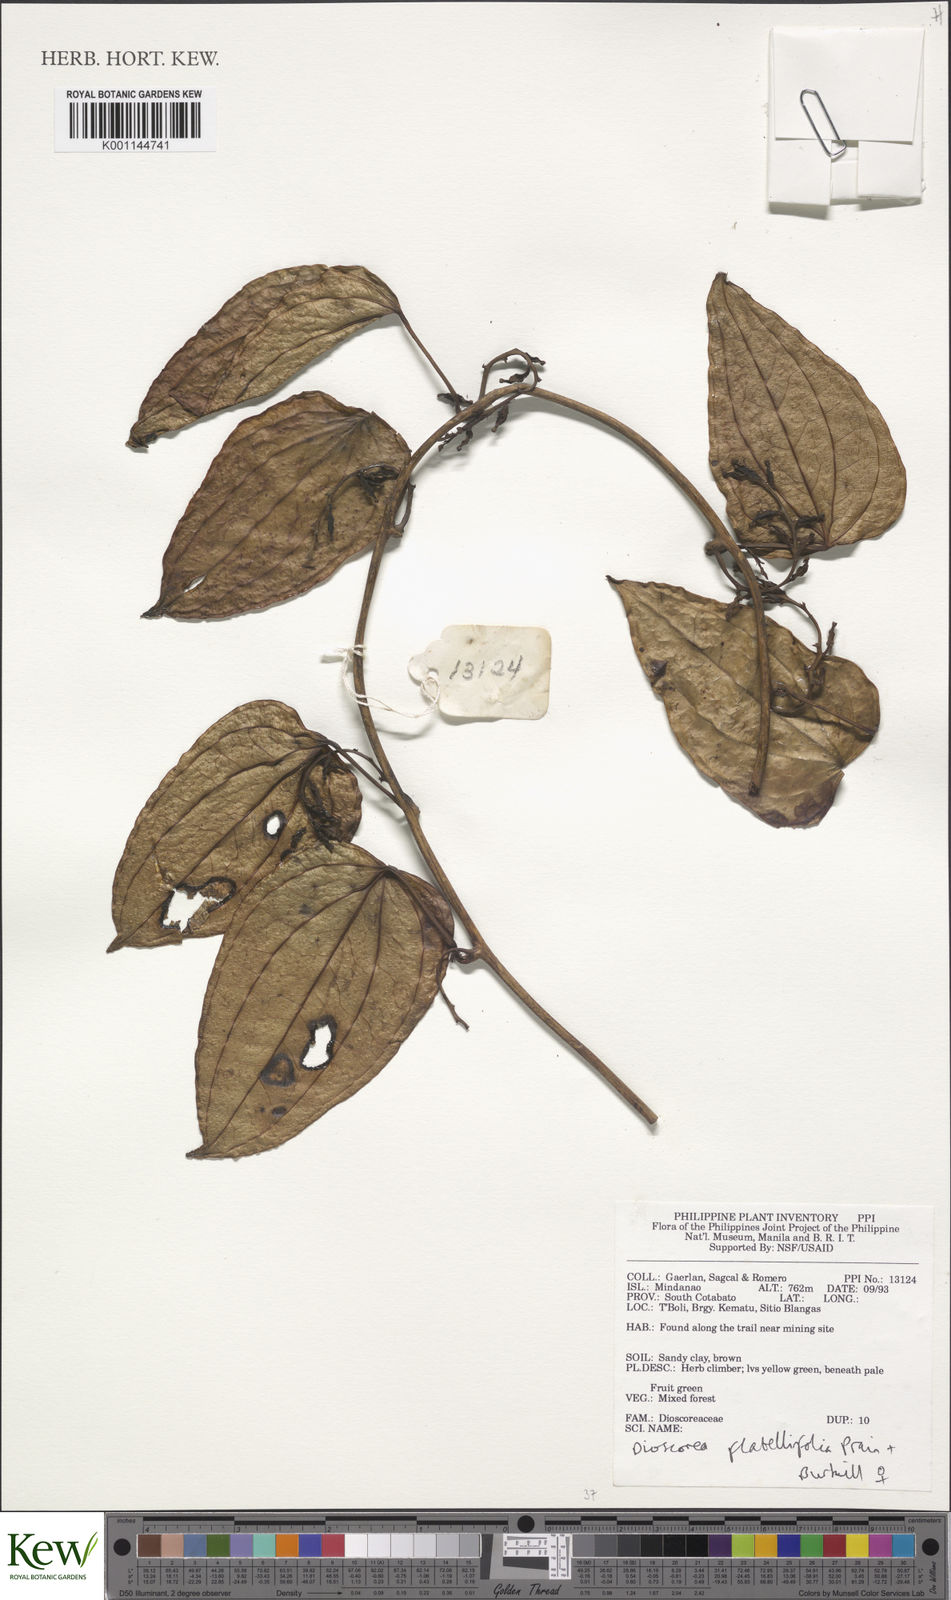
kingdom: Plantae
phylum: Tracheophyta
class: Liliopsida
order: Dioscoreales
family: Dioscoreaceae
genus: Dioscorea
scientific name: Dioscorea flabellifolia
